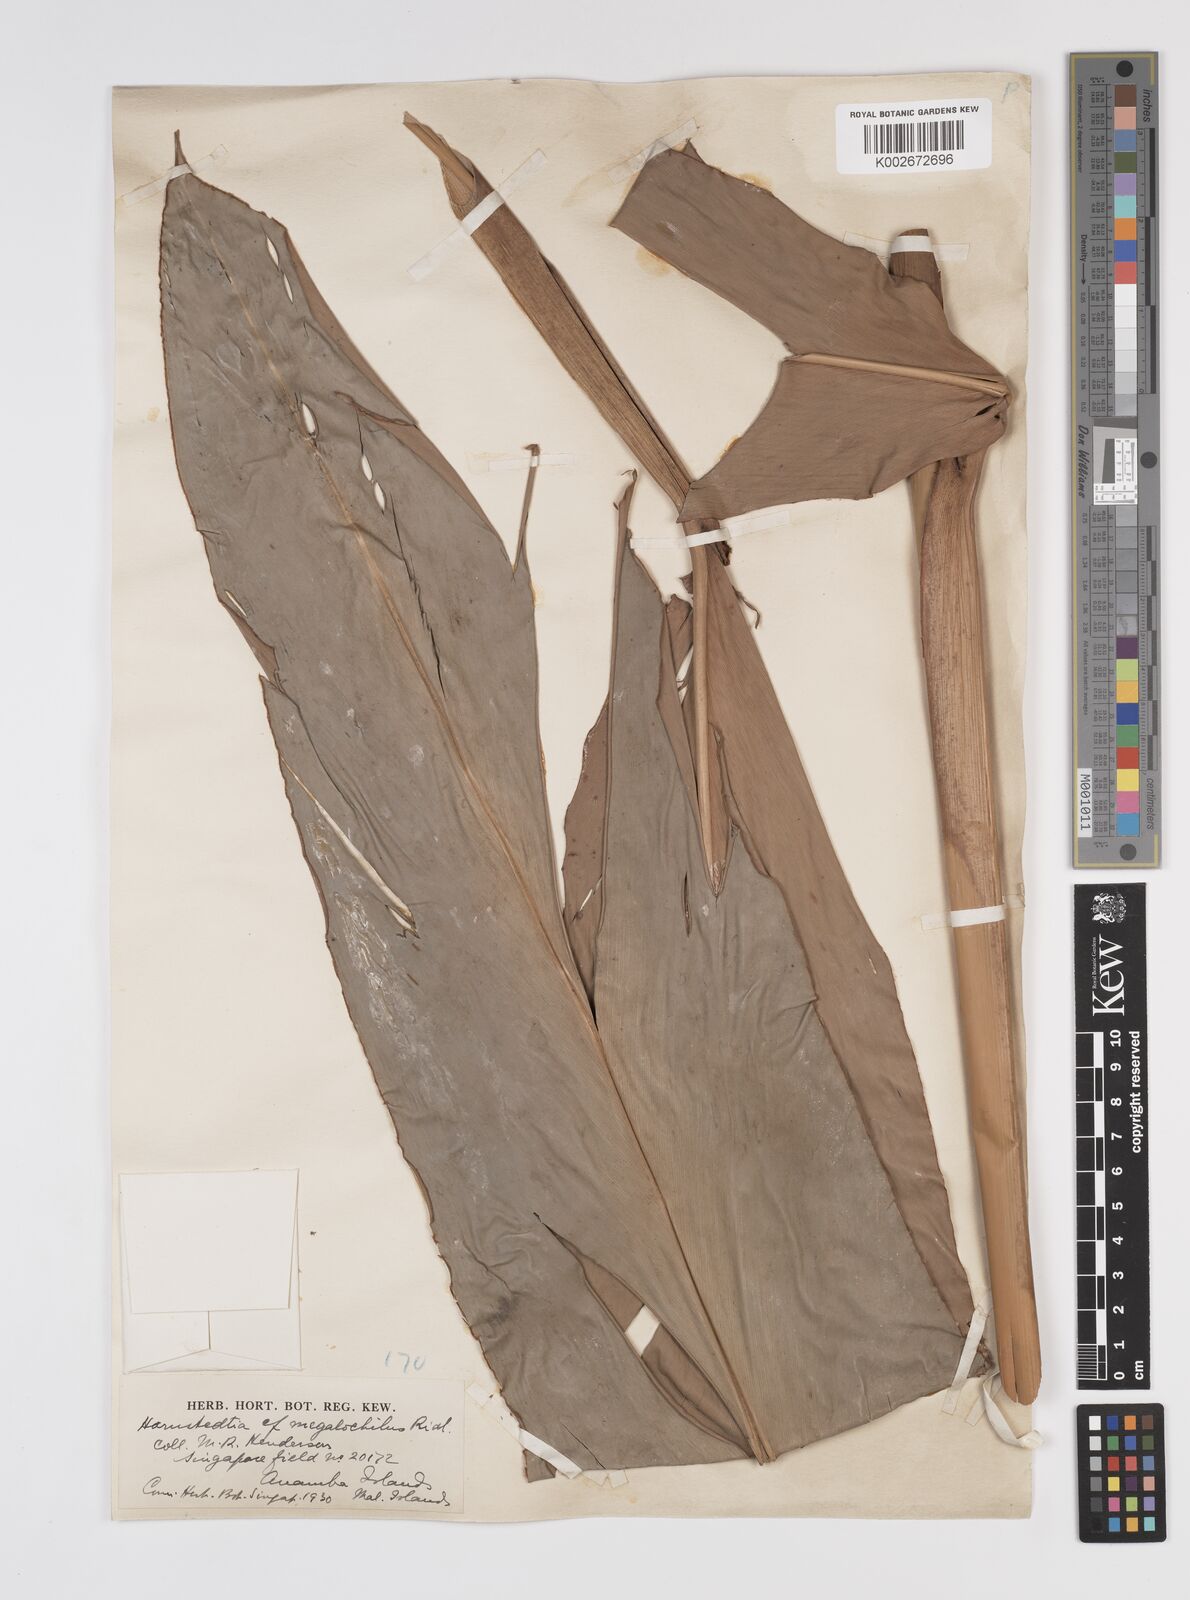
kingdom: Plantae
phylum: Tracheophyta
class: Liliopsida
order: Zingiberales
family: Zingiberaceae
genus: Etlingera
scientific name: Etlingera littoralis
